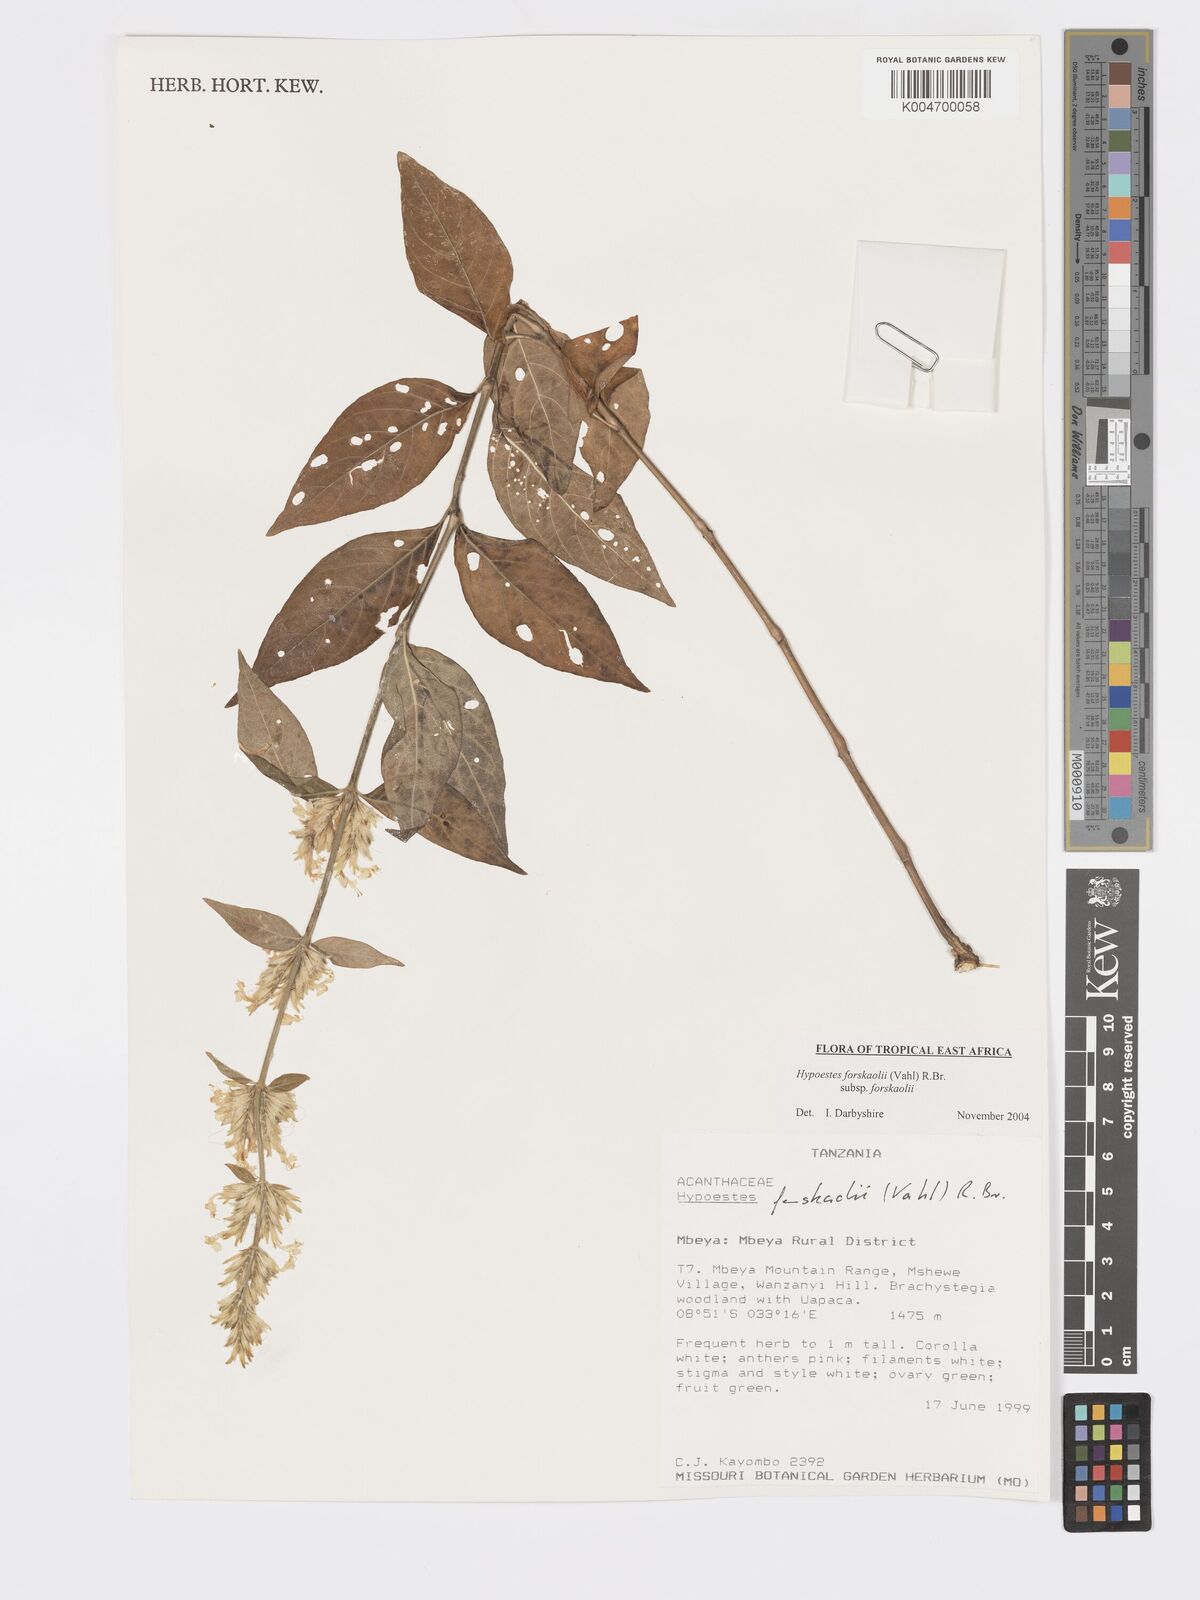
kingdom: Plantae
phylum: Tracheophyta
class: Magnoliopsida
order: Lamiales
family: Acanthaceae
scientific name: Acanthaceae
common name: Acanthaceae
